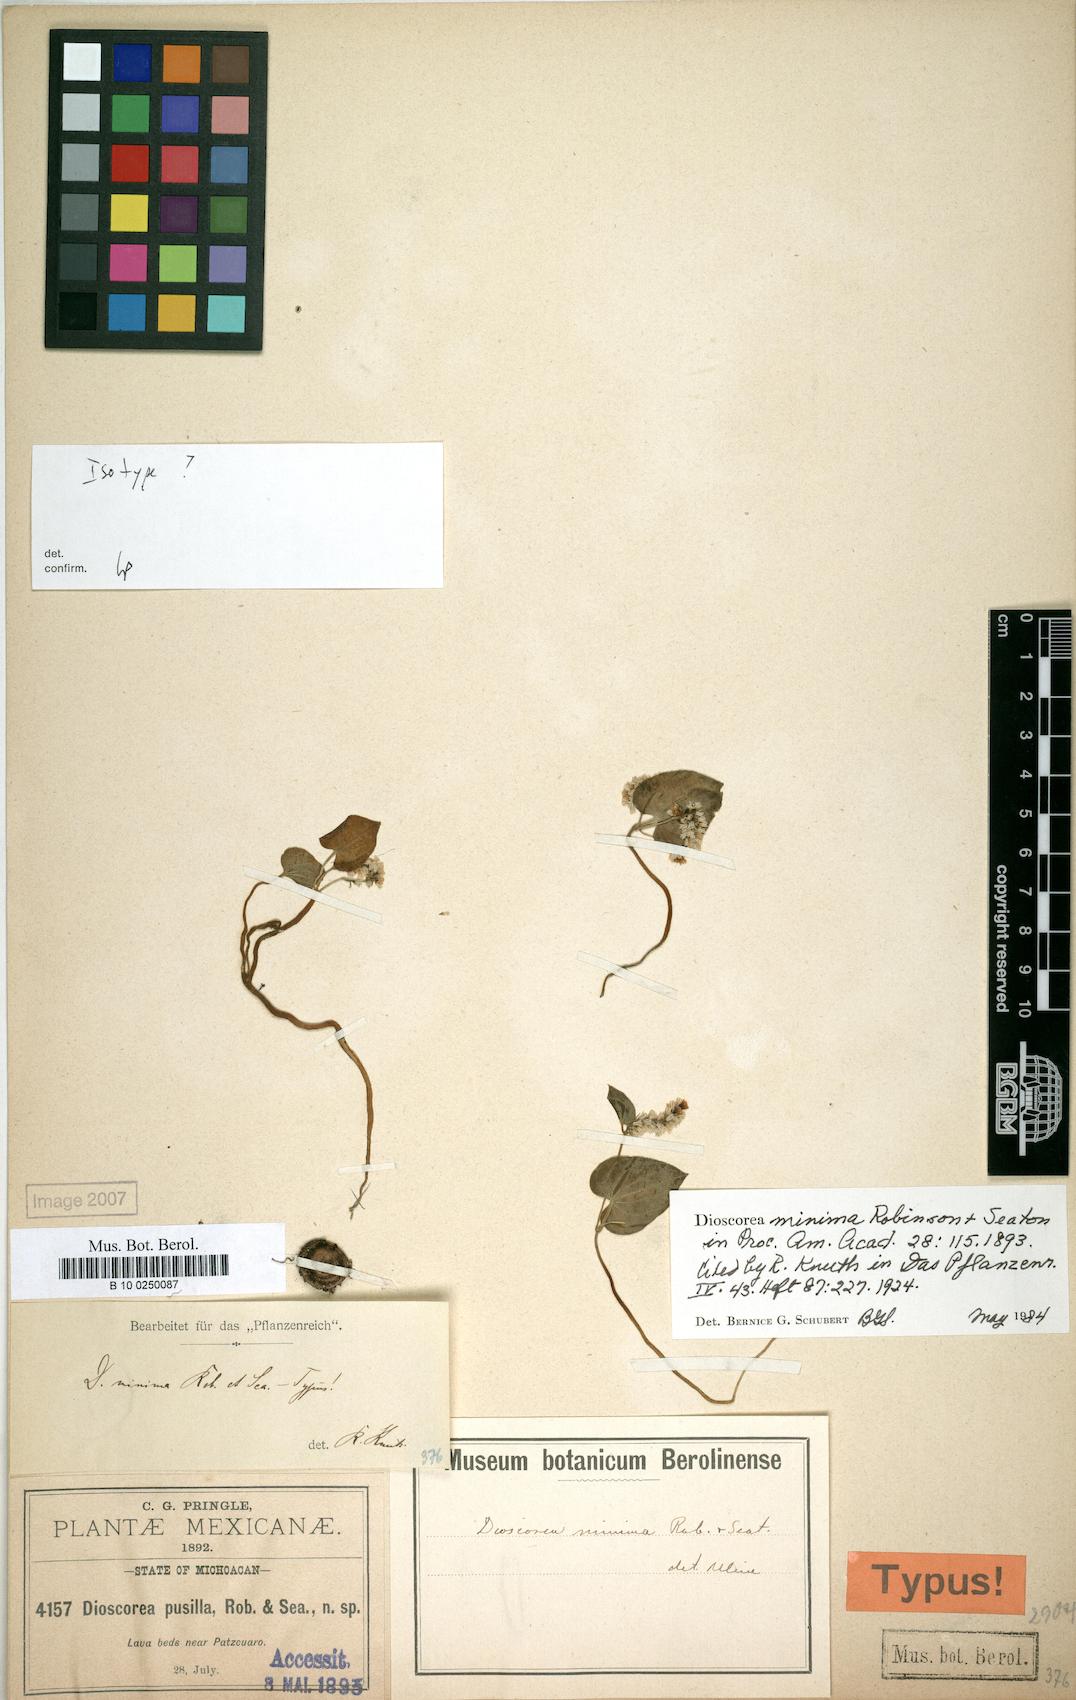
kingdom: Plantae
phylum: Tracheophyta
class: Liliopsida
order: Dioscoreales
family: Dioscoreaceae
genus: Dioscorea
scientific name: Dioscorea minima
